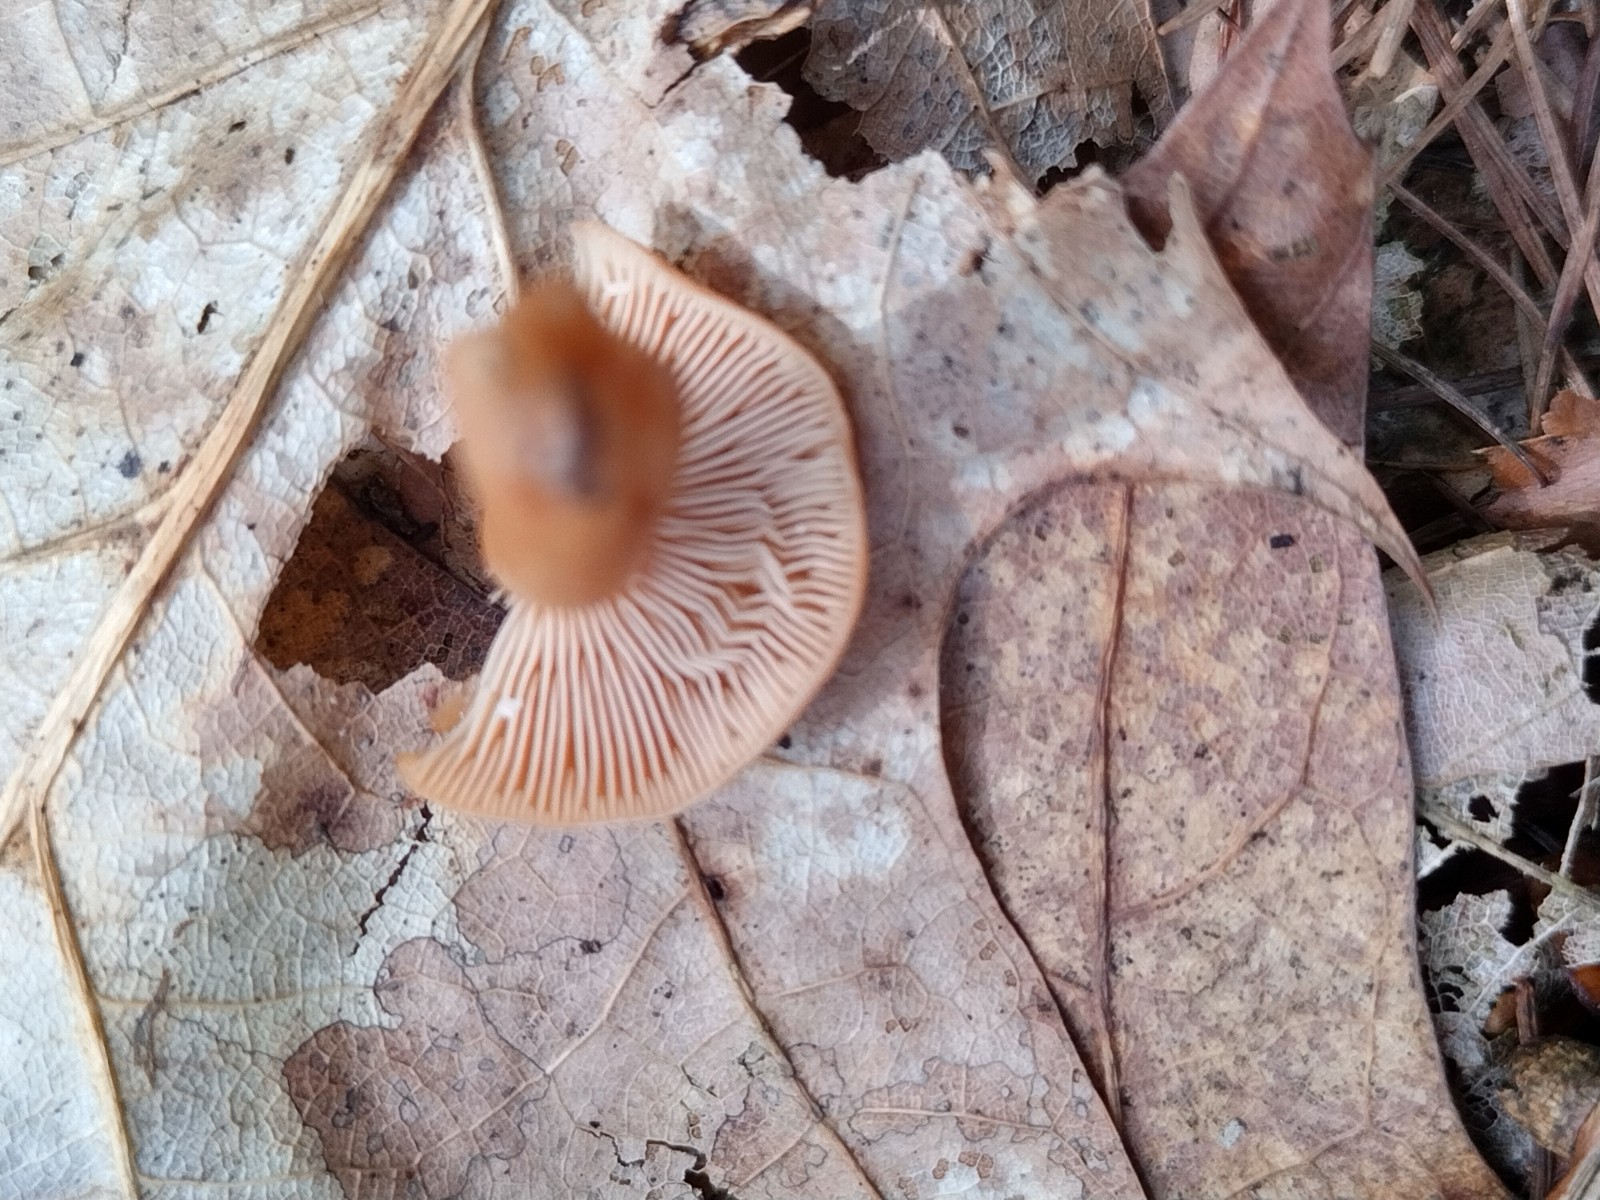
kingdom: Fungi
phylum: Basidiomycota
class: Agaricomycetes
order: Russulales
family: Russulaceae
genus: Lactarius
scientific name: Lactarius tabidus
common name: rynket mælkehat
